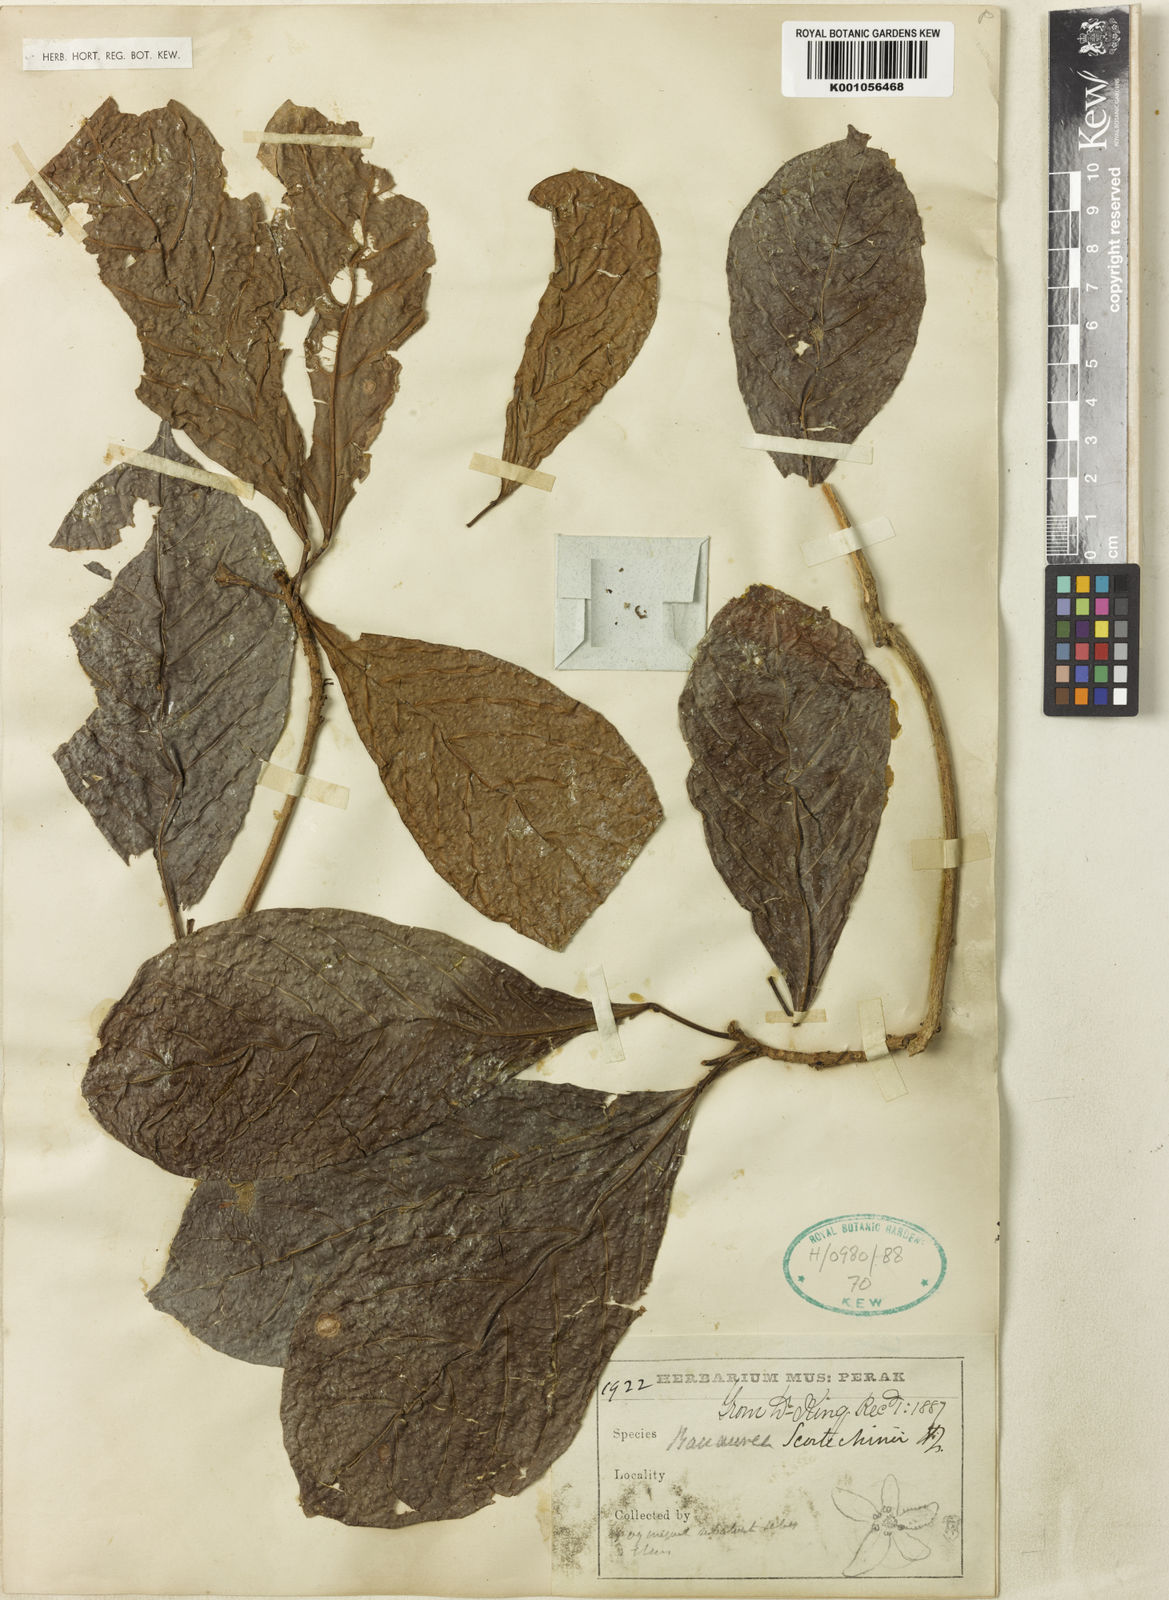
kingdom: Plantae
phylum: Tracheophyta
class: Magnoliopsida
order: Malpighiales
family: Phyllanthaceae
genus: Baccaurea
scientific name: Baccaurea
